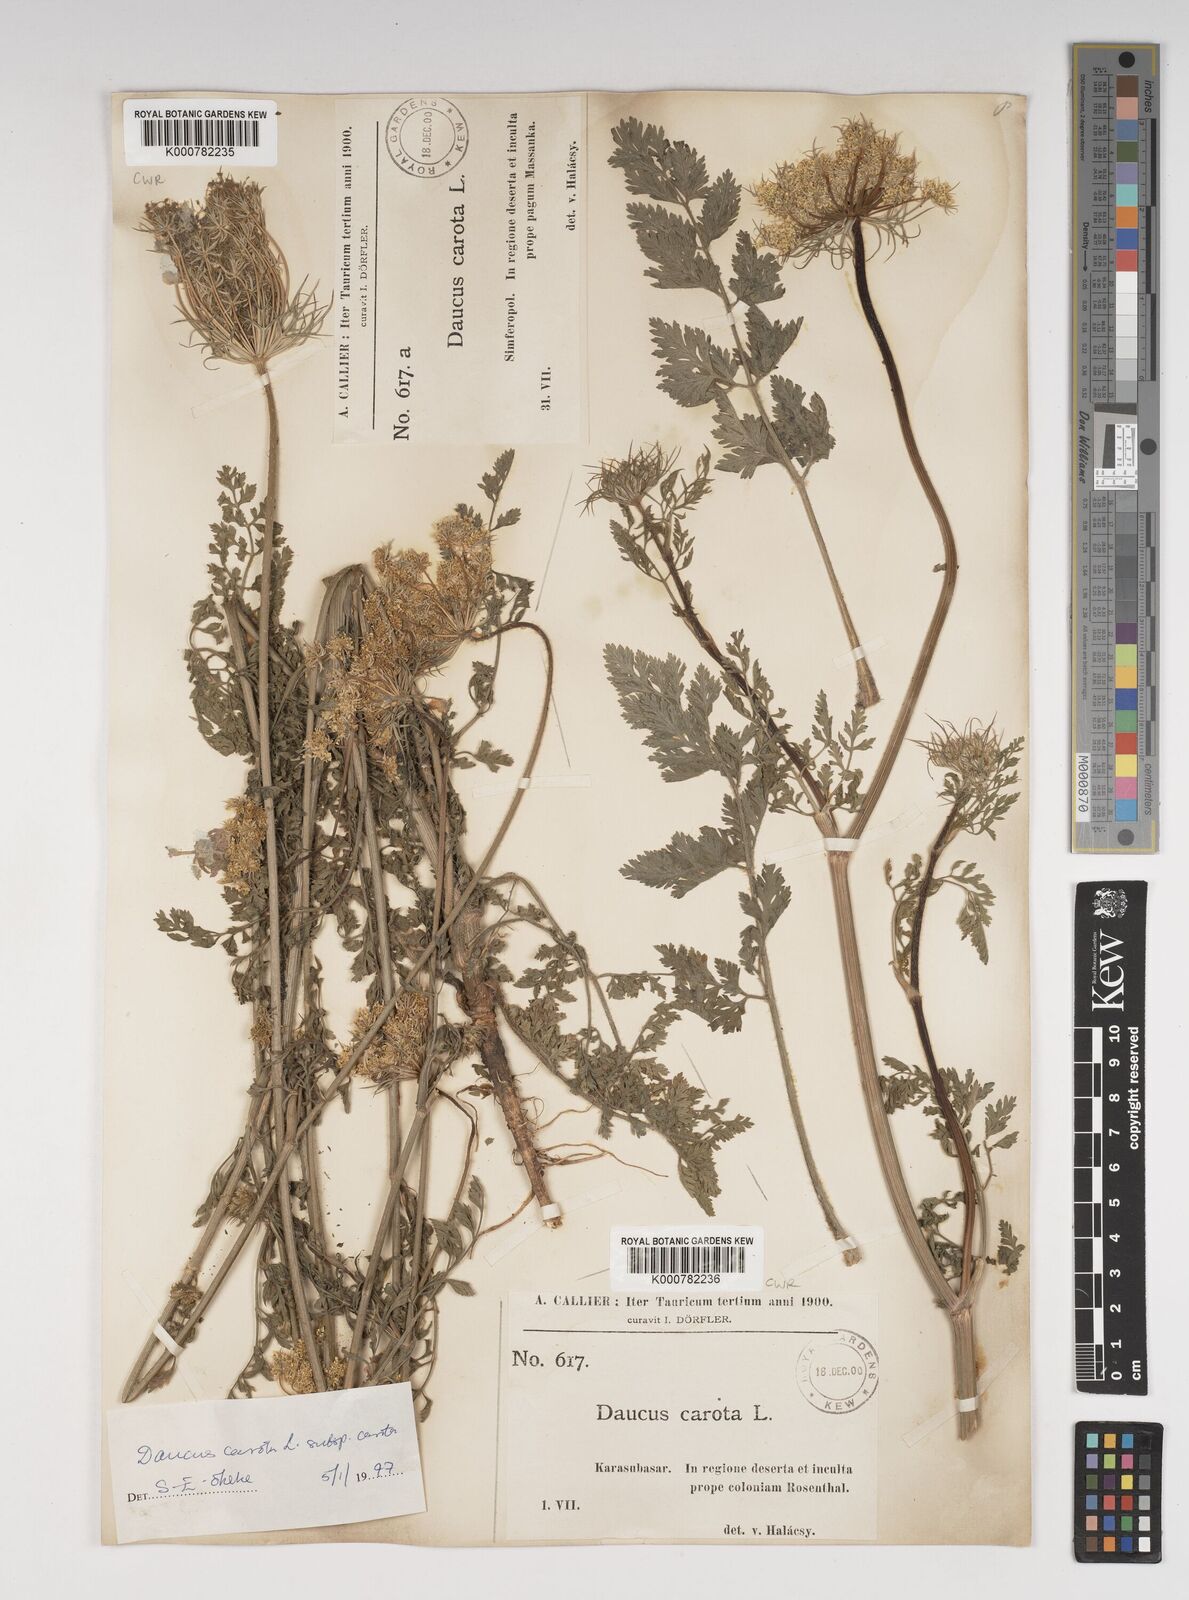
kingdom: Plantae
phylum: Tracheophyta
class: Magnoliopsida
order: Apiales
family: Apiaceae
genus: Daucus
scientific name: Daucus carota
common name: Wild carrot
